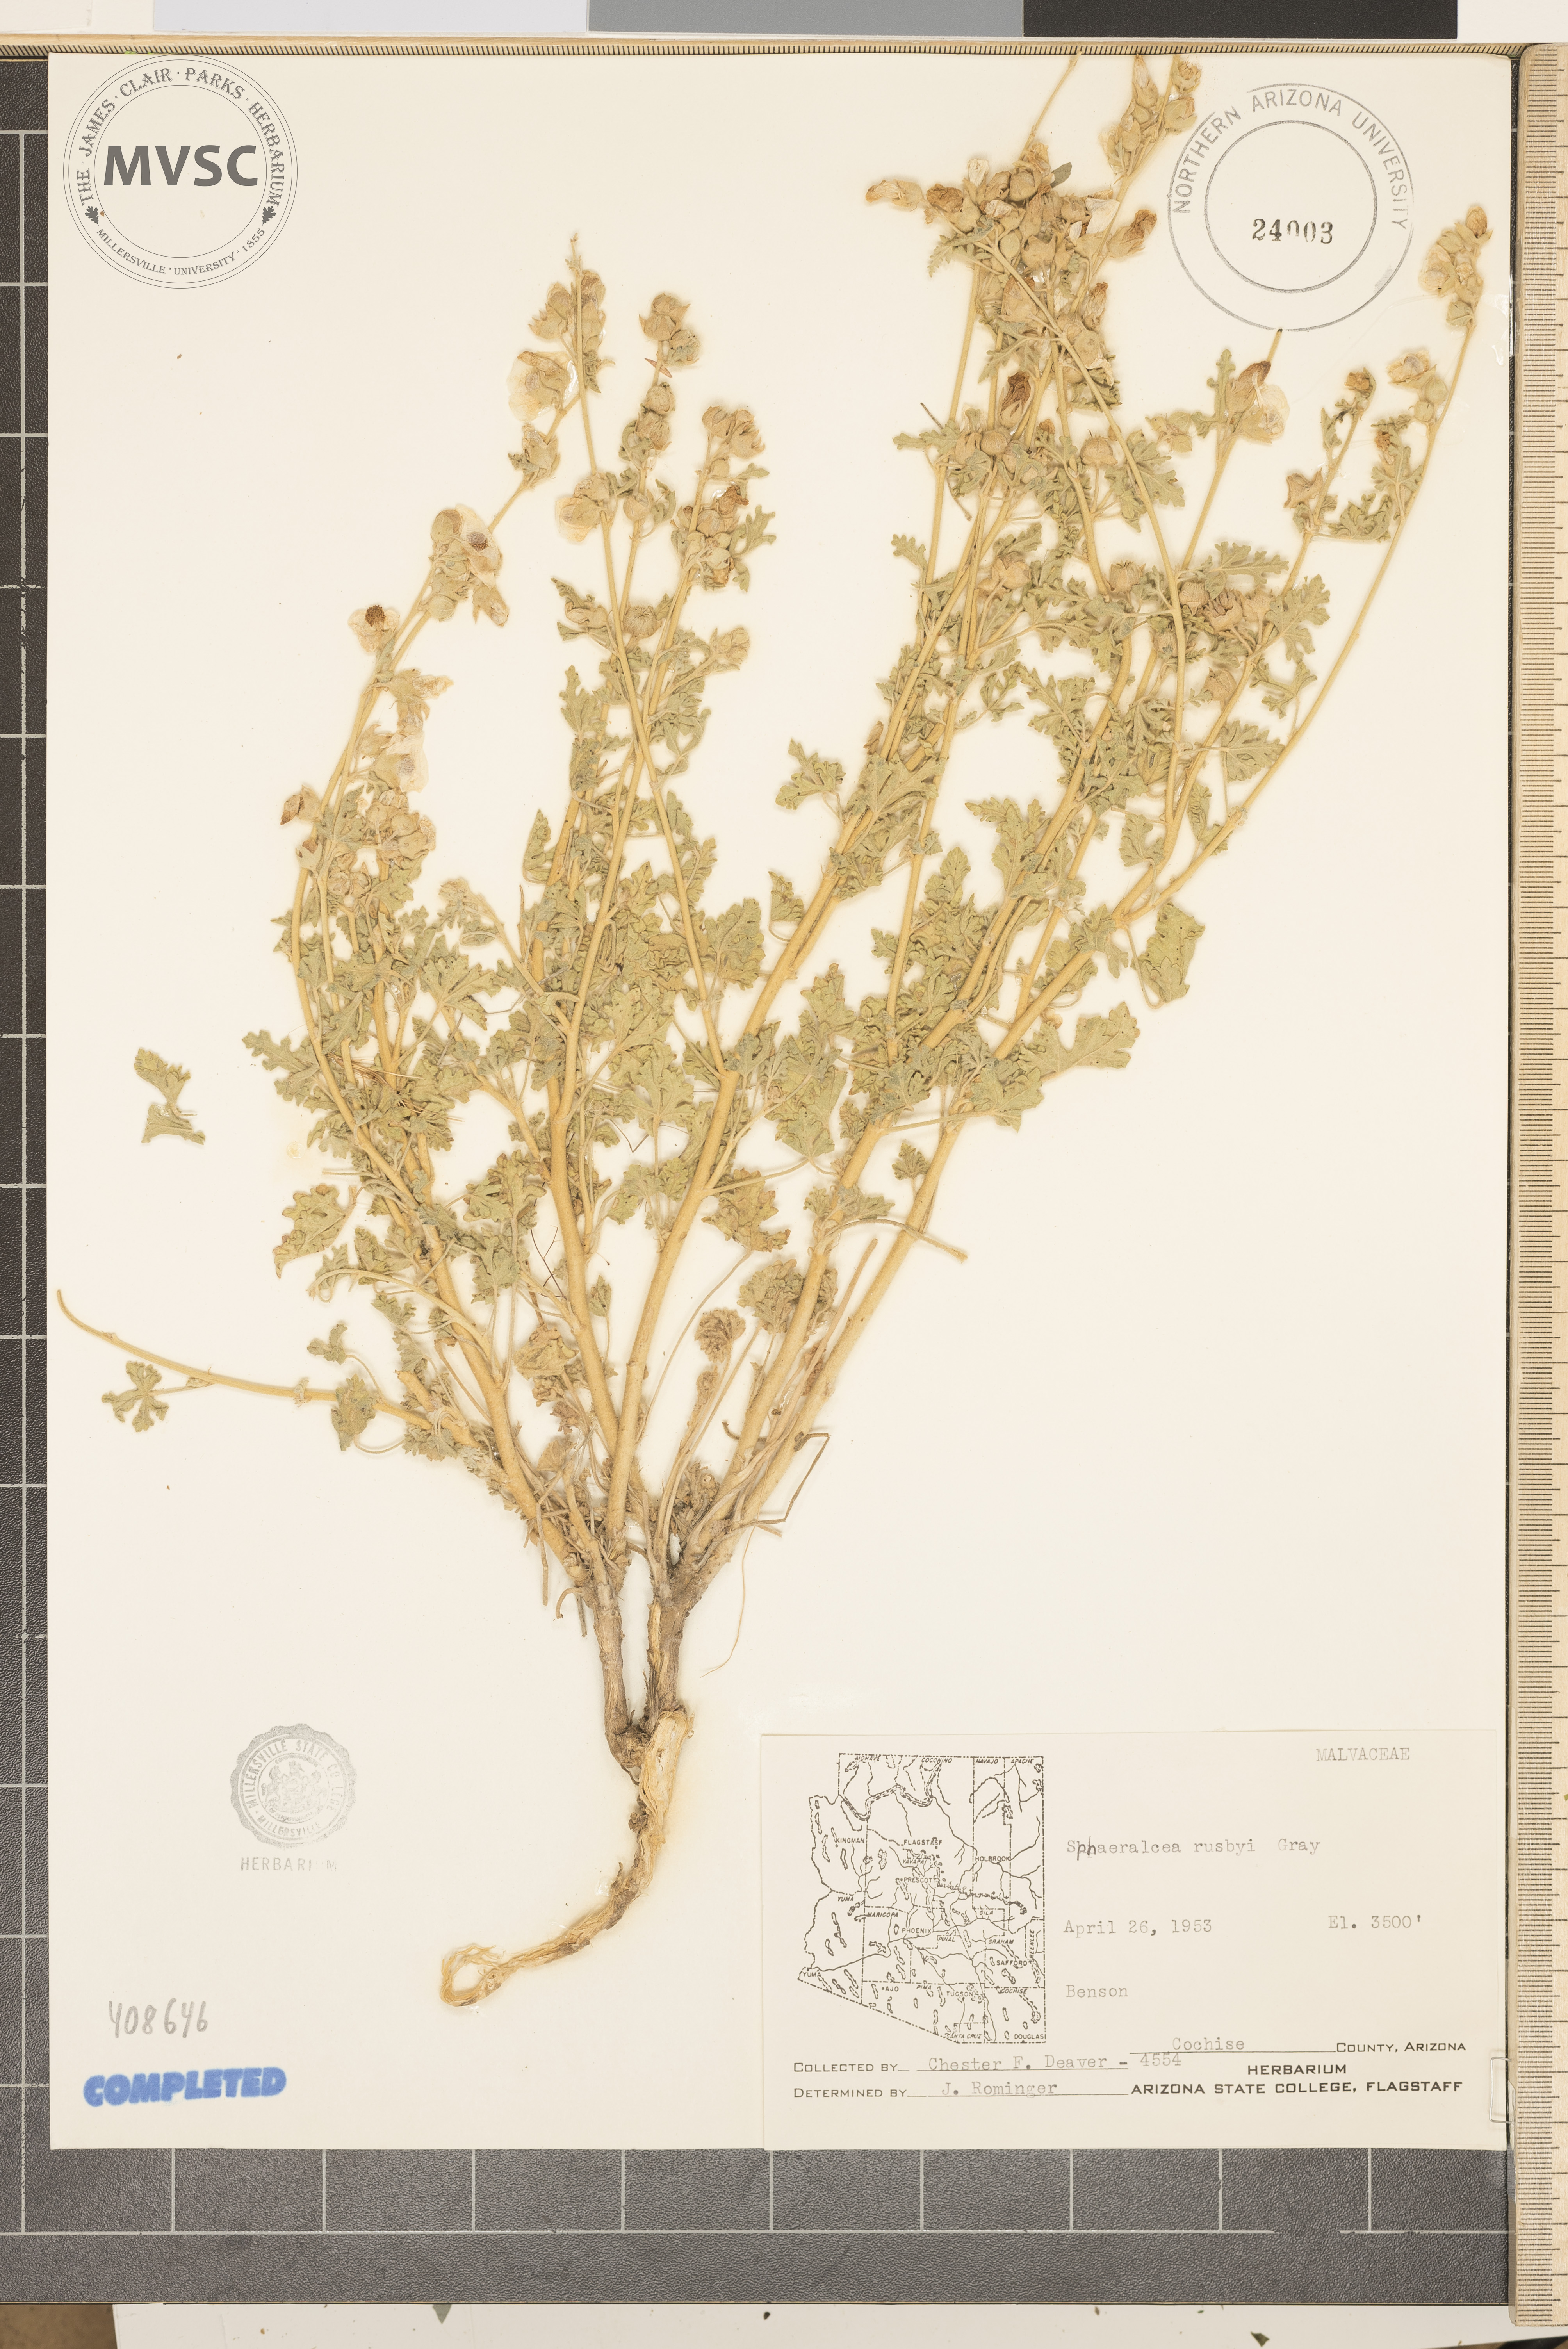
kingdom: Plantae
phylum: Tracheophyta
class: Magnoliopsida
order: Malvales
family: Malvaceae
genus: Sphaeralcea
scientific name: Sphaeralcea grossulariifolia
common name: Current-leaf globe-mallow
